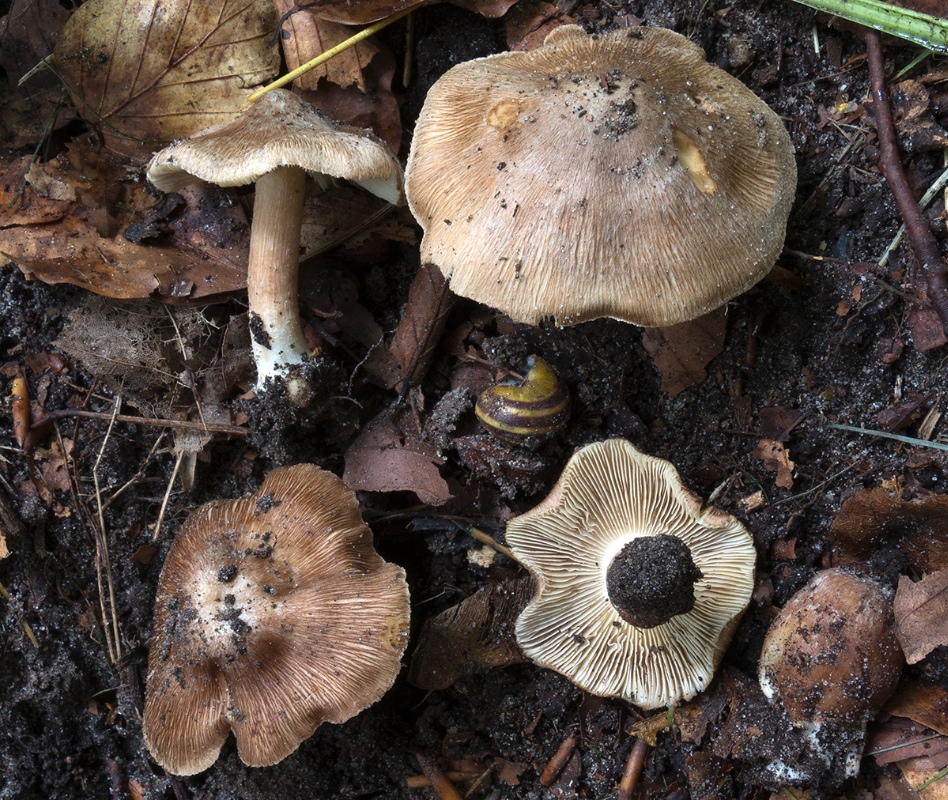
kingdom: Fungi
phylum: Basidiomycota
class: Agaricomycetes
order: Agaricales
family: Inocybaceae
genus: Inosperma
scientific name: Inosperma
